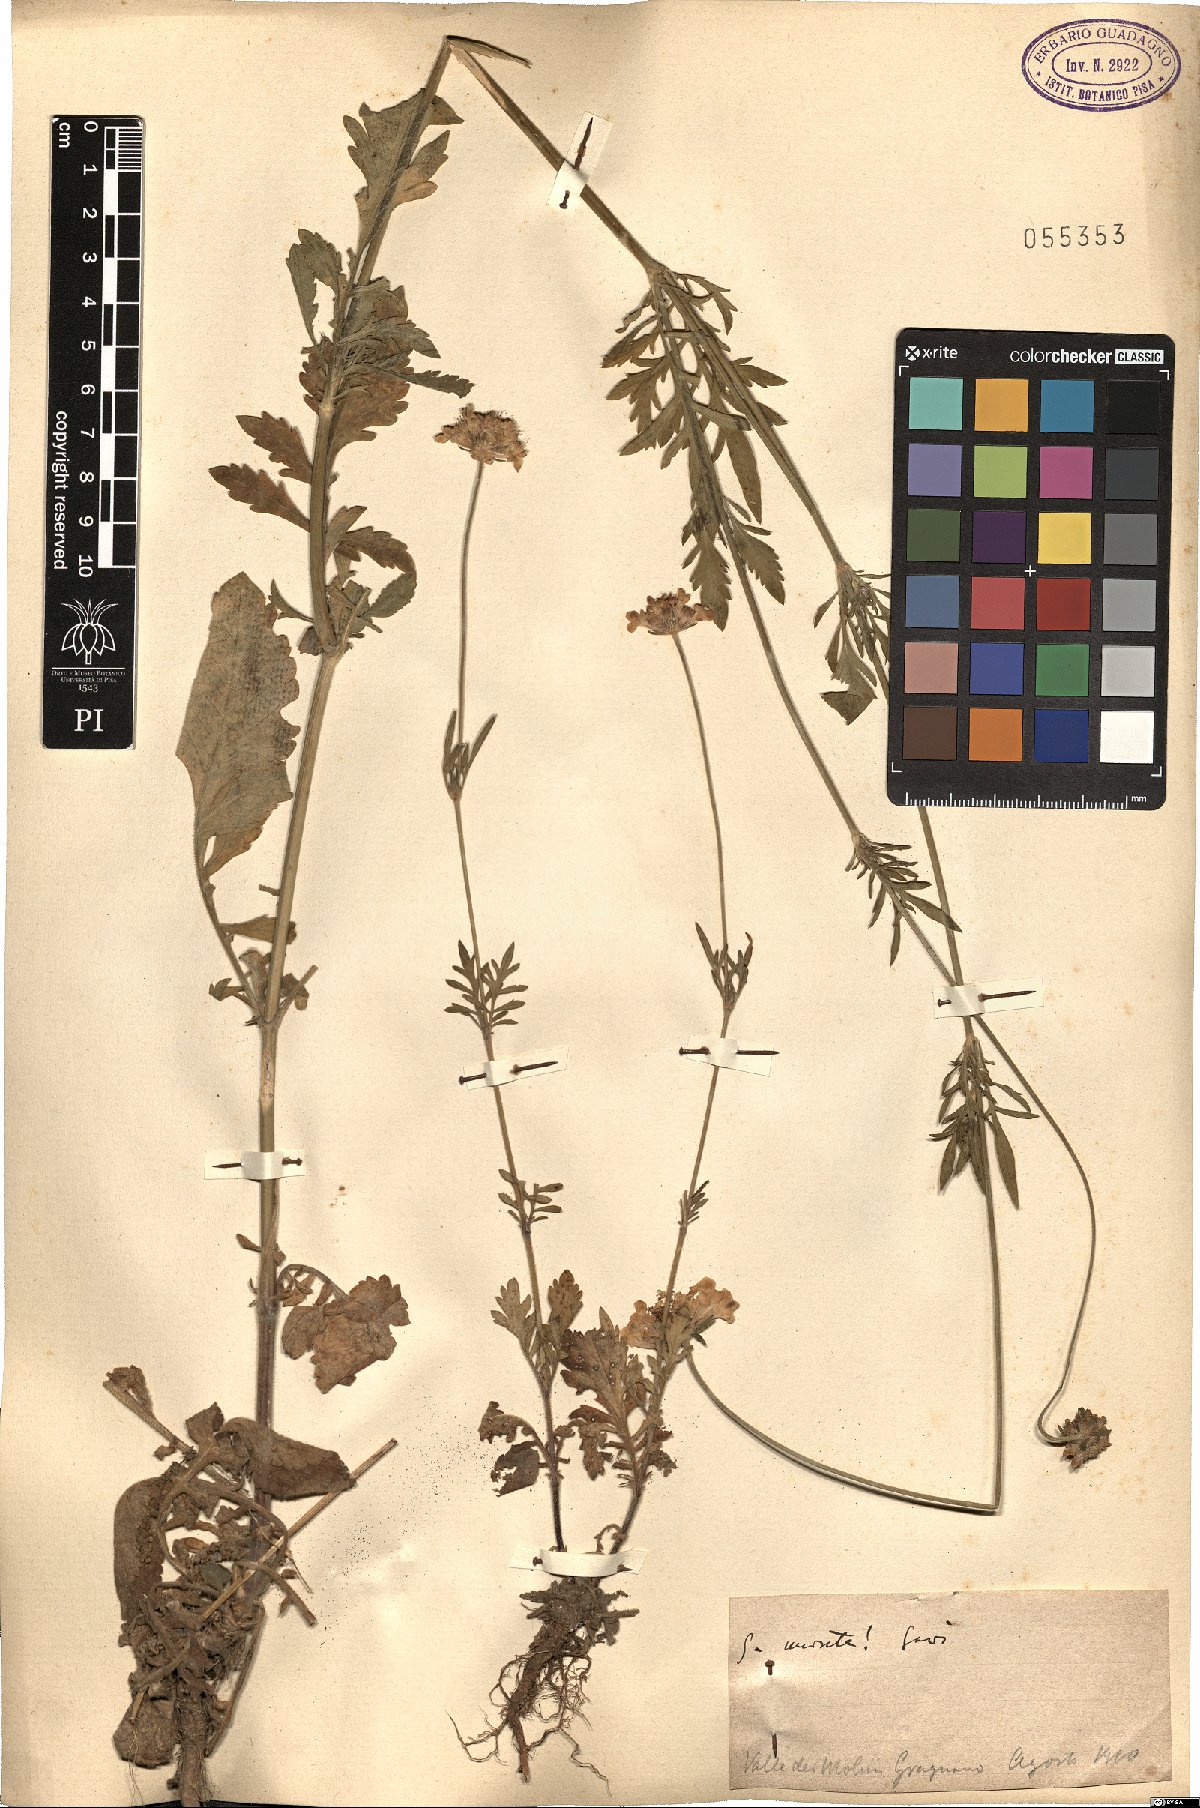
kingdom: Plantae
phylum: Tracheophyta
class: Magnoliopsida
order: Dipsacales
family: Caprifoliaceae
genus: Scabiosa
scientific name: Scabiosa columbaria
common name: Small scabious
